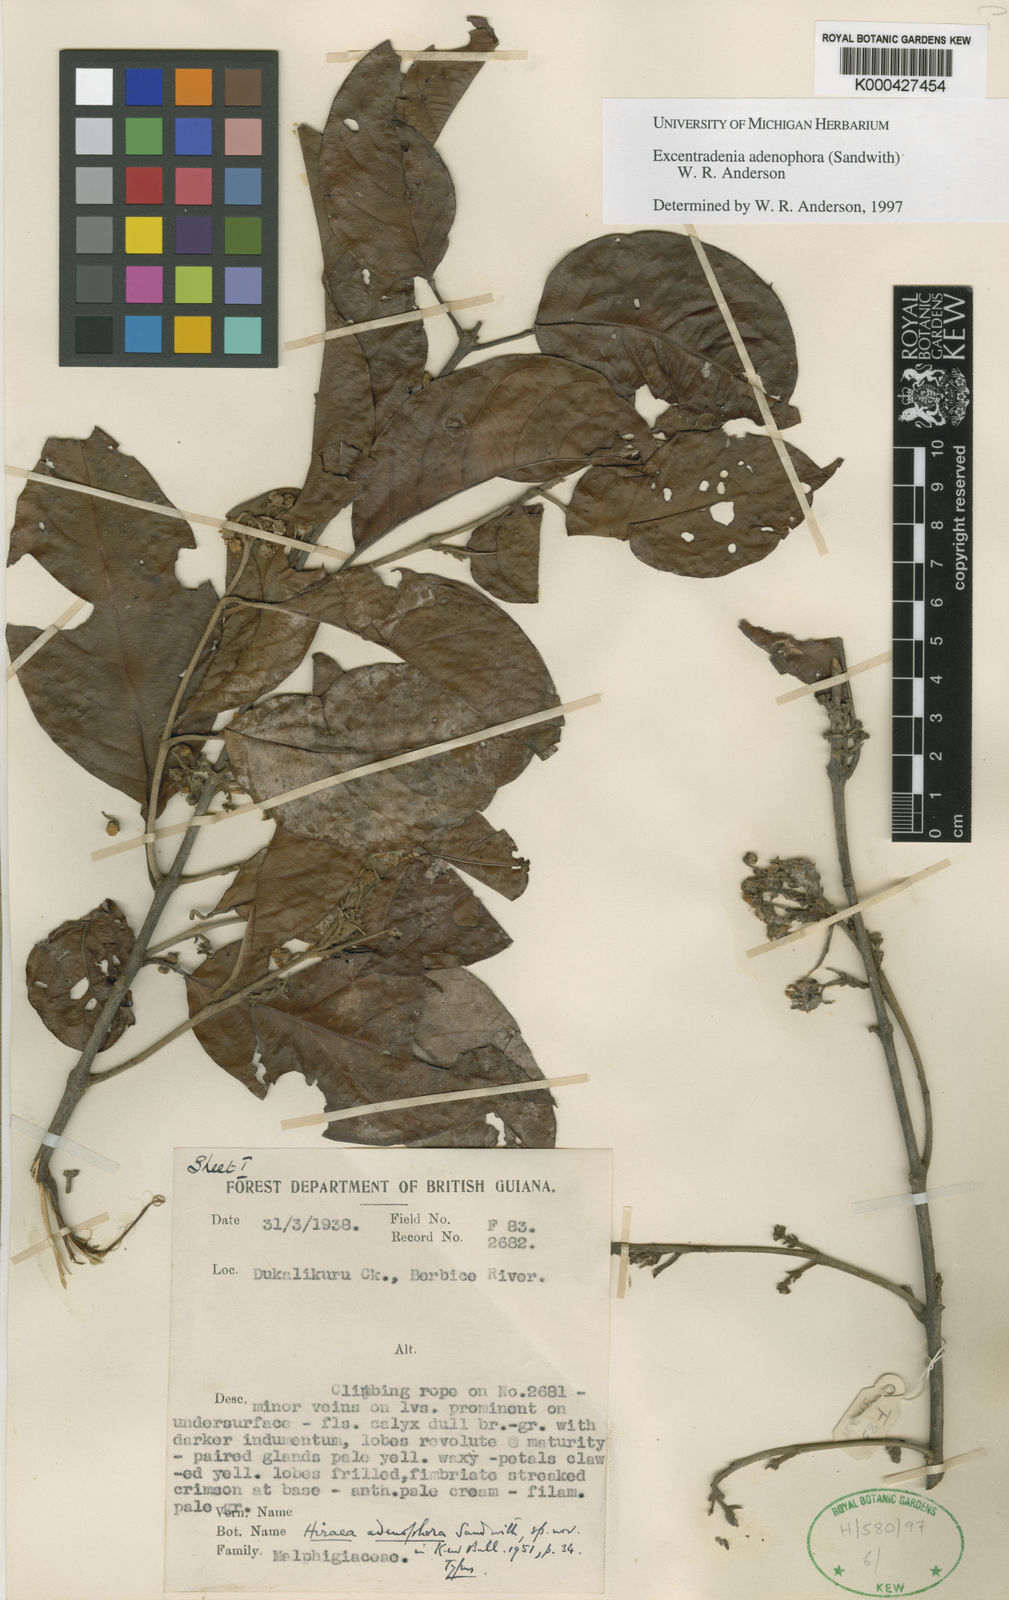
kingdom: Plantae
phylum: Tracheophyta
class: Magnoliopsida
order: Malpighiales
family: Malpighiaceae
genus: Excentradenia
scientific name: Excentradenia adenophora
